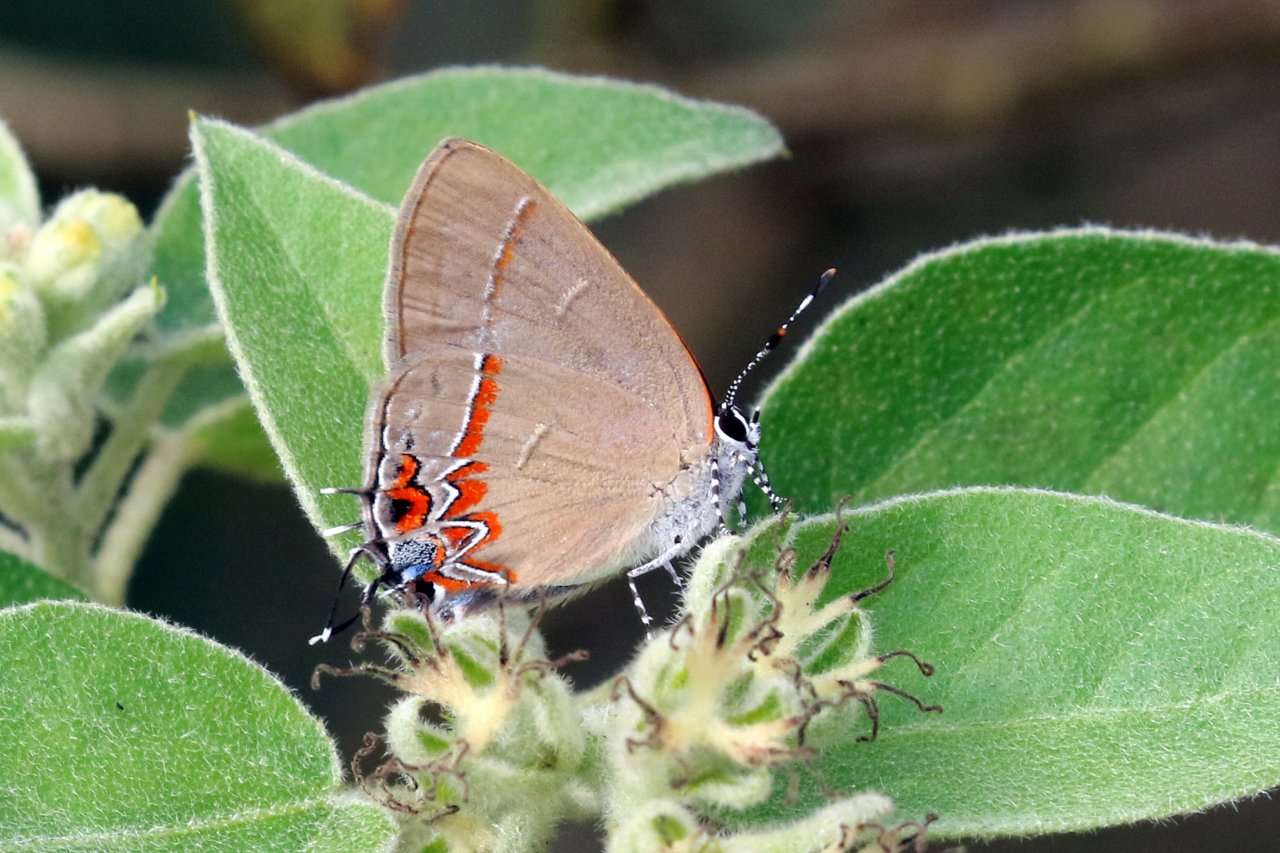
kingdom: Animalia
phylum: Arthropoda
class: Insecta
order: Lepidoptera
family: Lycaenidae
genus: Calycopis
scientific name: Calycopis isobeon
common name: Dusky-blue Groundstreak
